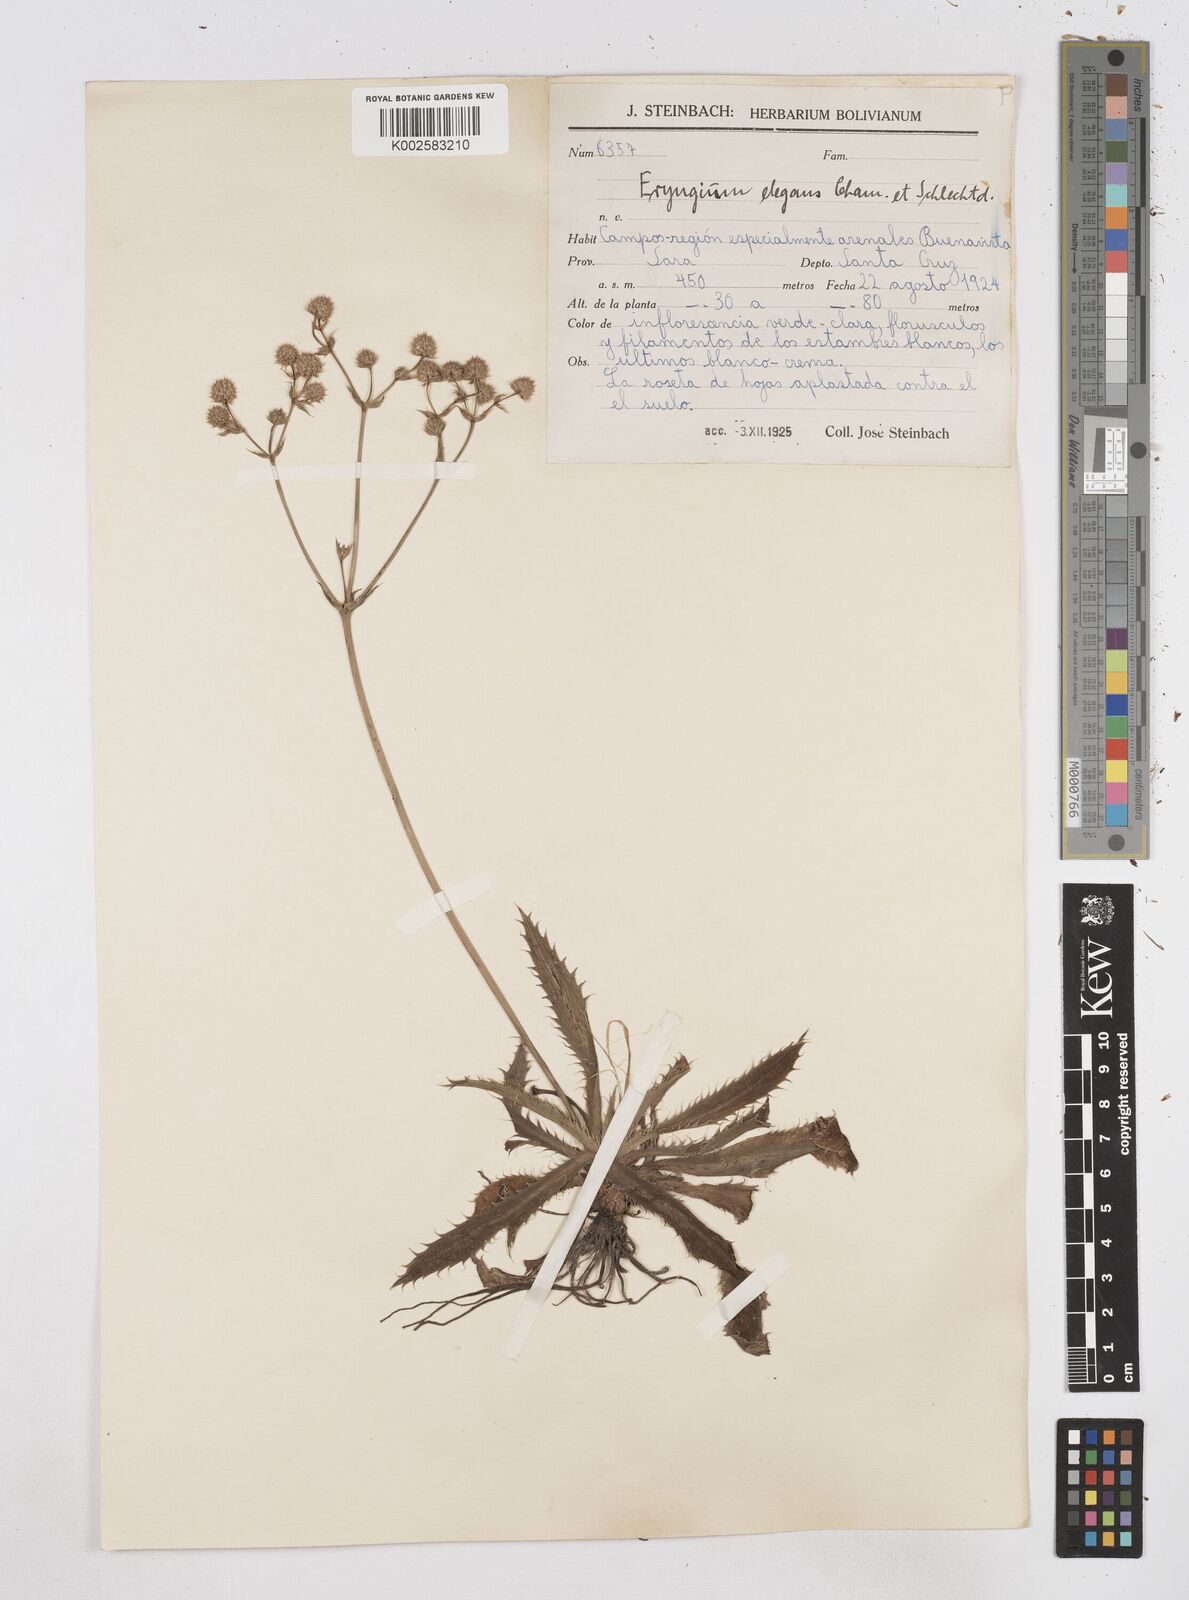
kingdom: Plantae
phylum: Tracheophyta
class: Magnoliopsida
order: Apiales
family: Apiaceae
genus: Eryngium
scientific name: Eryngium elegans
